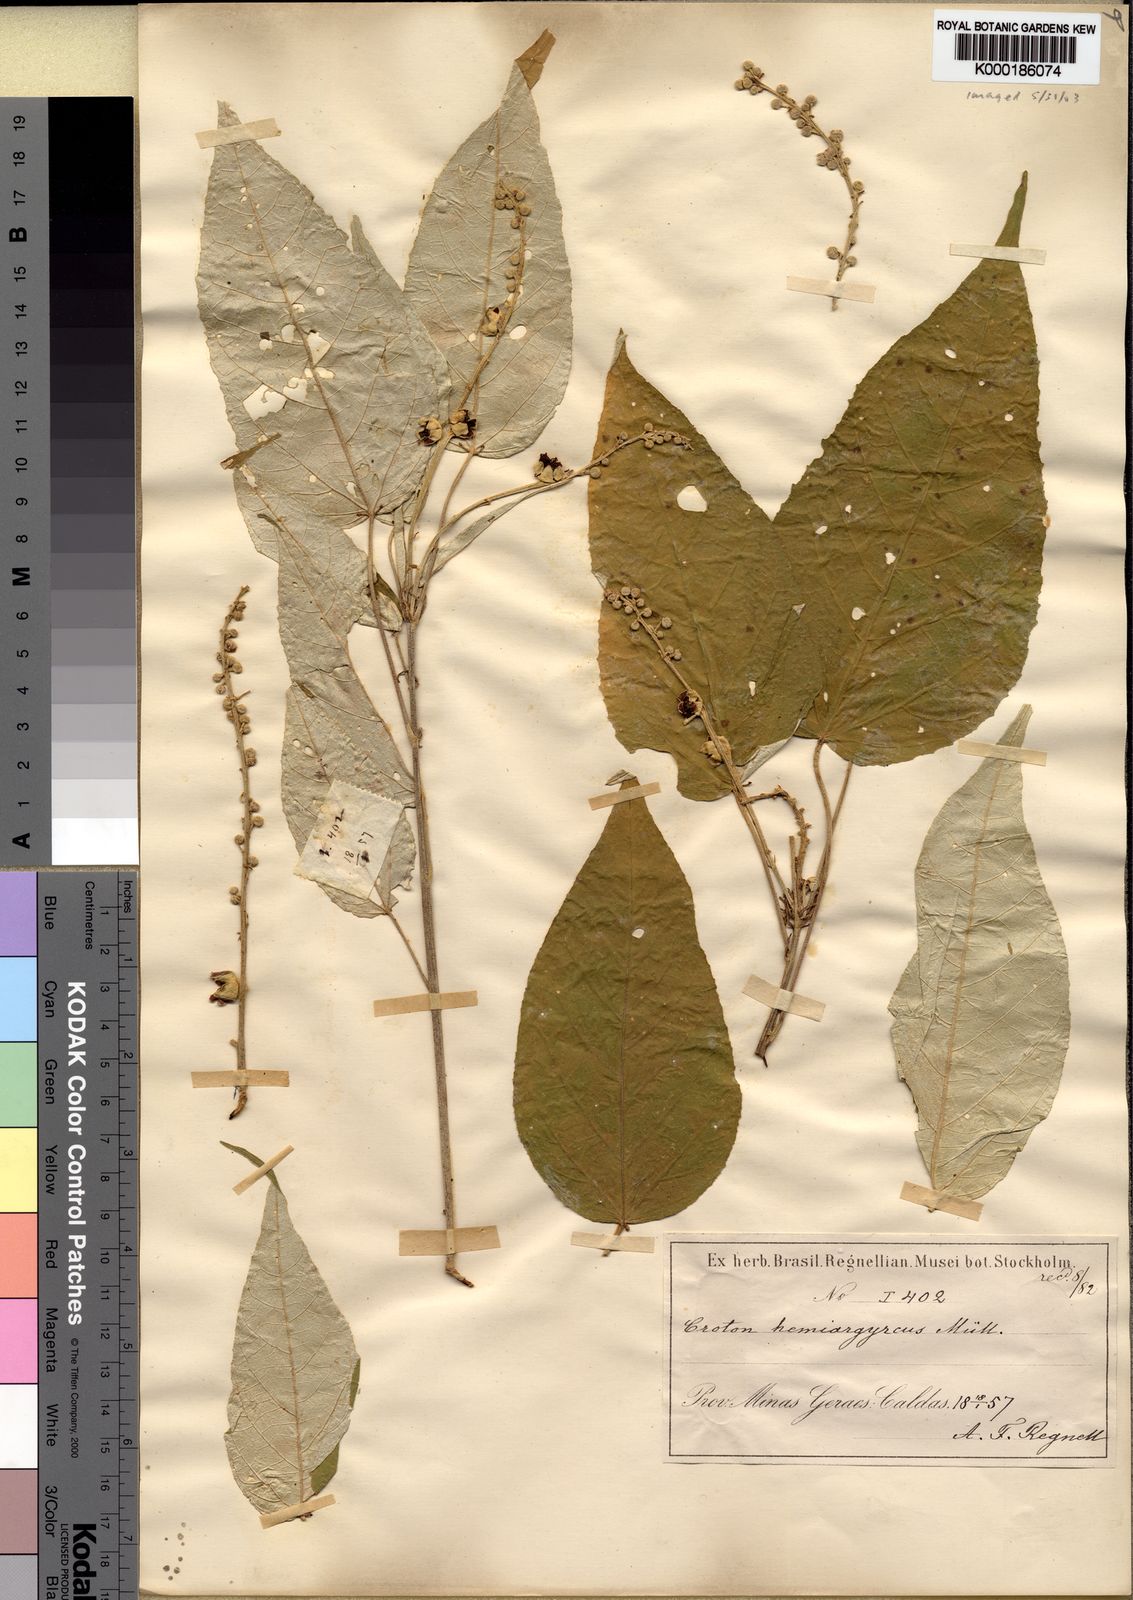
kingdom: Plantae
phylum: Tracheophyta
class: Magnoliopsida
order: Malpighiales
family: Euphorbiaceae
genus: Croton
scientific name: Croton
